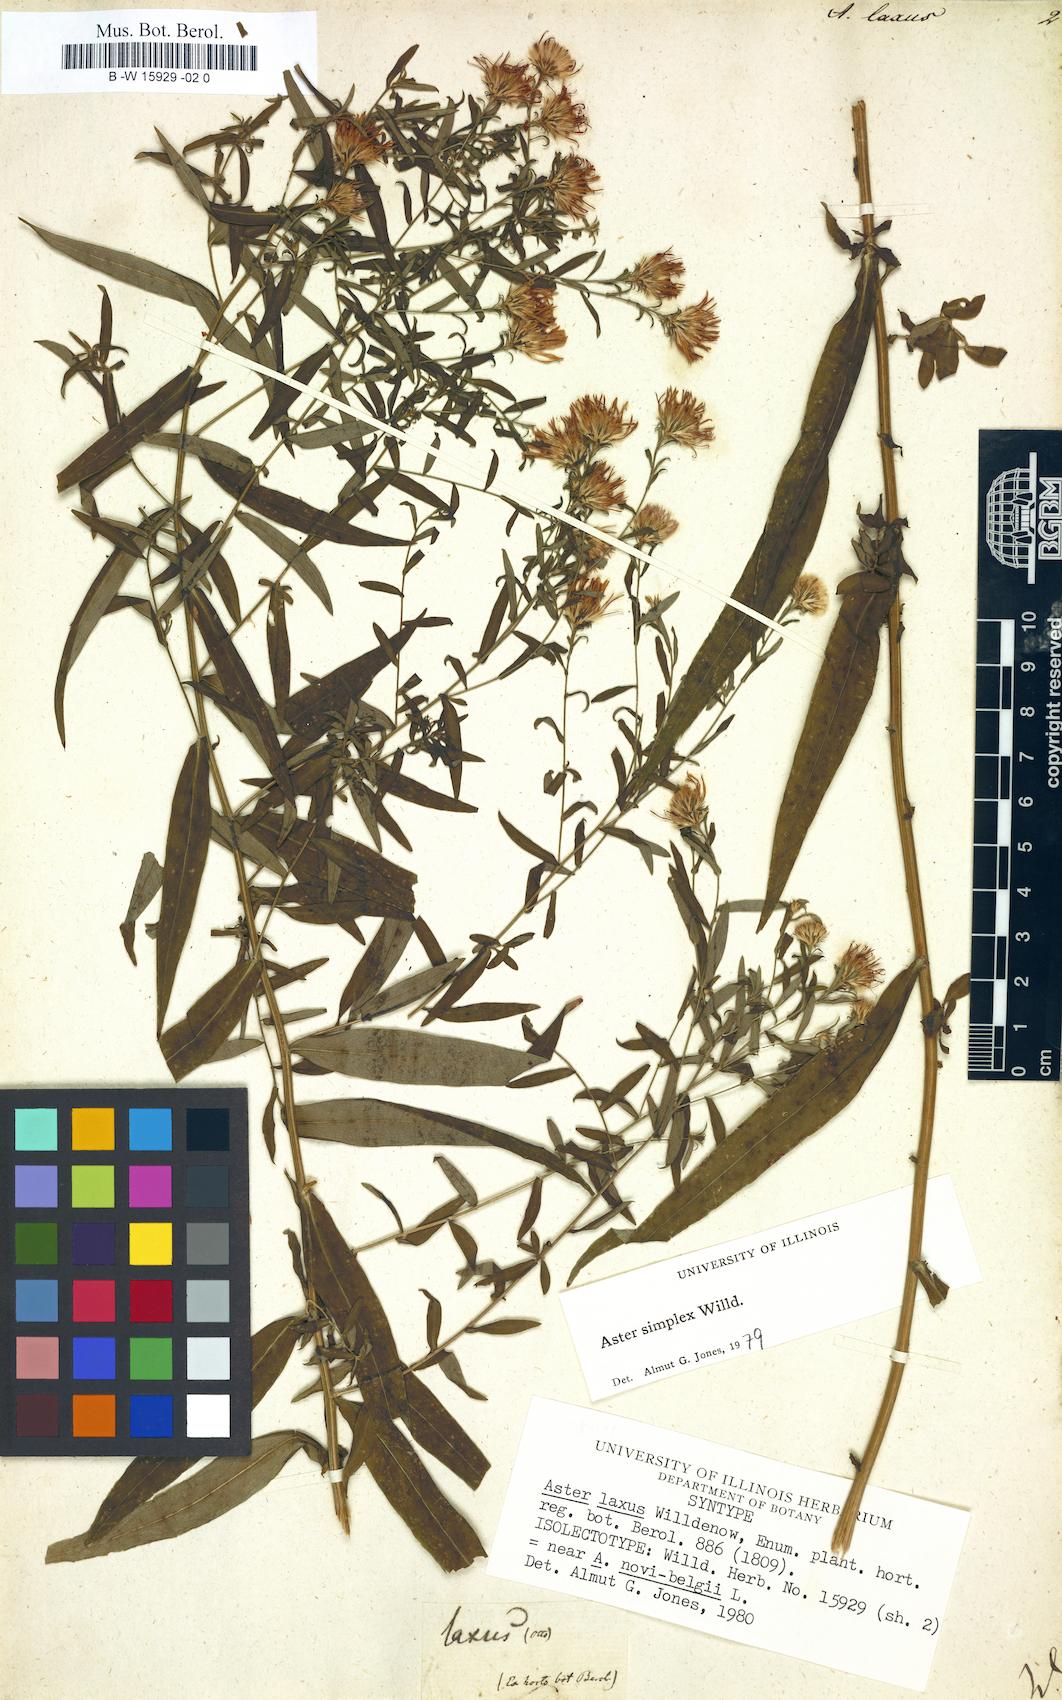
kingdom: Plantae
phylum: Tracheophyta
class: Magnoliopsida
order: Asterales
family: Asteraceae
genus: Symphyotrichum
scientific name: Symphyotrichum lanceolatum
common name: Panicled aster
